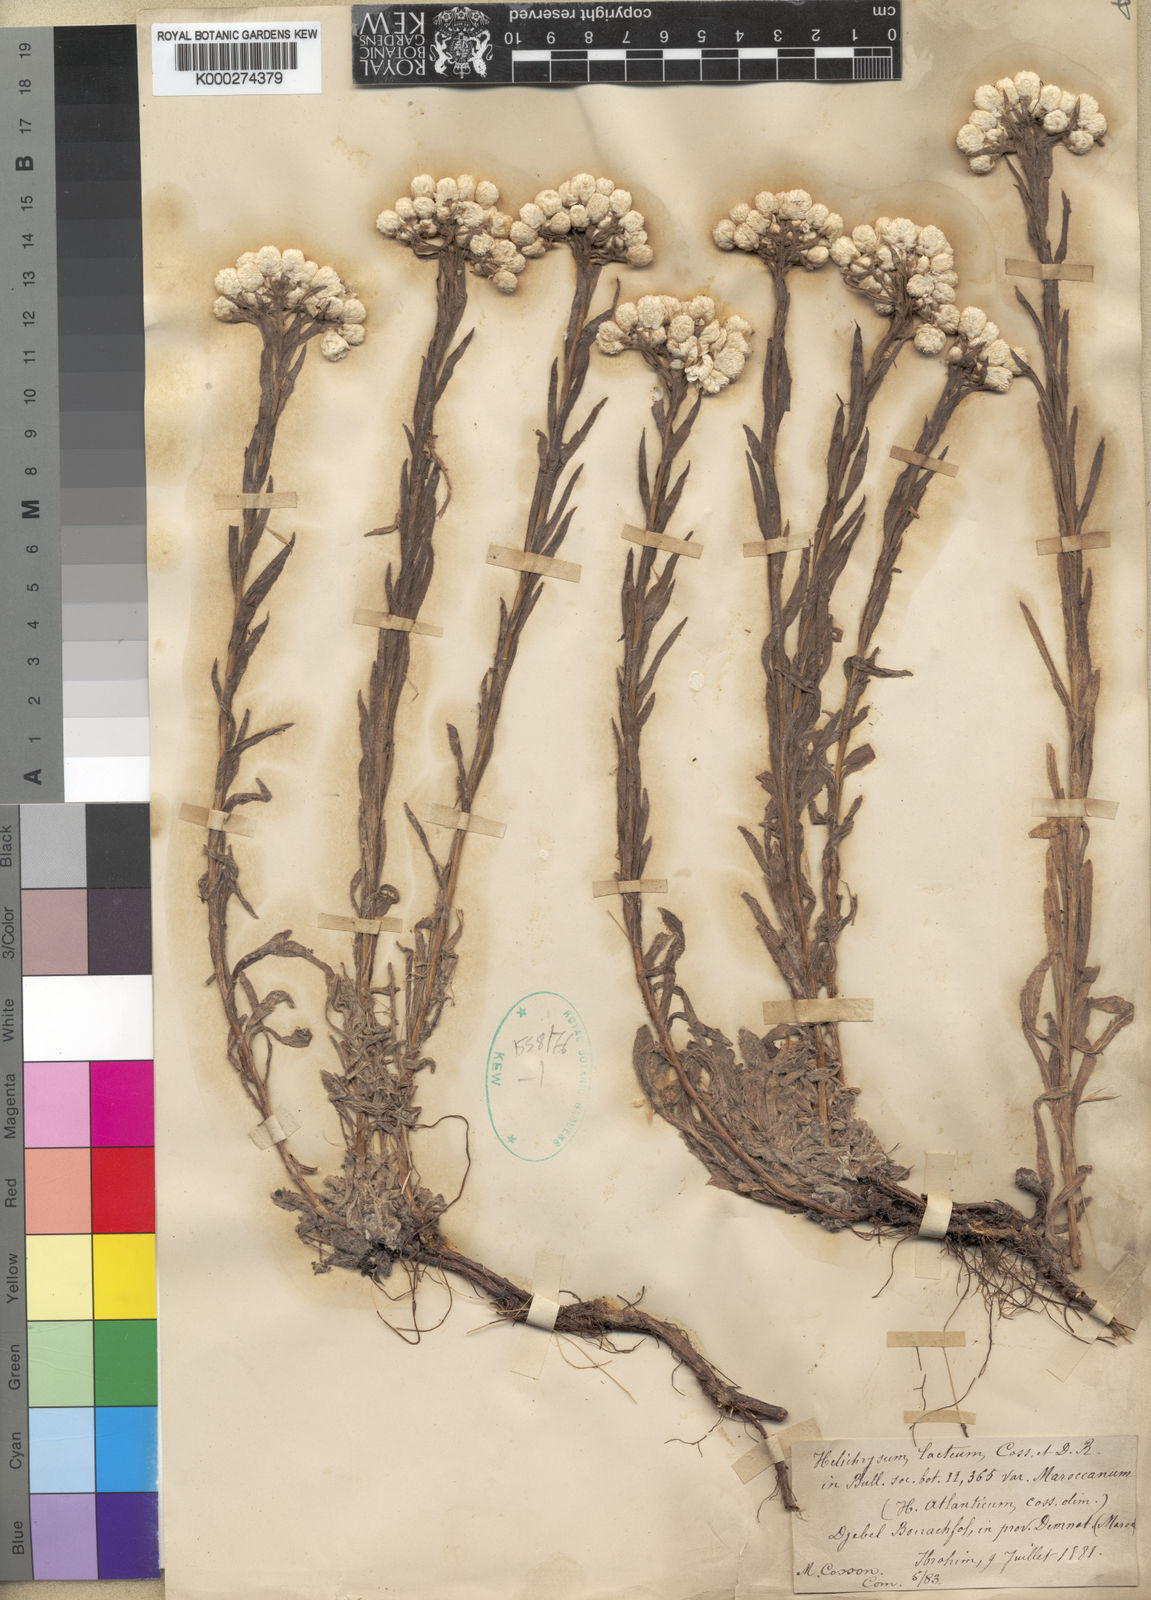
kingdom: Plantae
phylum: Tracheophyta
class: Magnoliopsida
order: Asterales
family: Asteraceae
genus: Helichrysum
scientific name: Helichrysum lacteum
